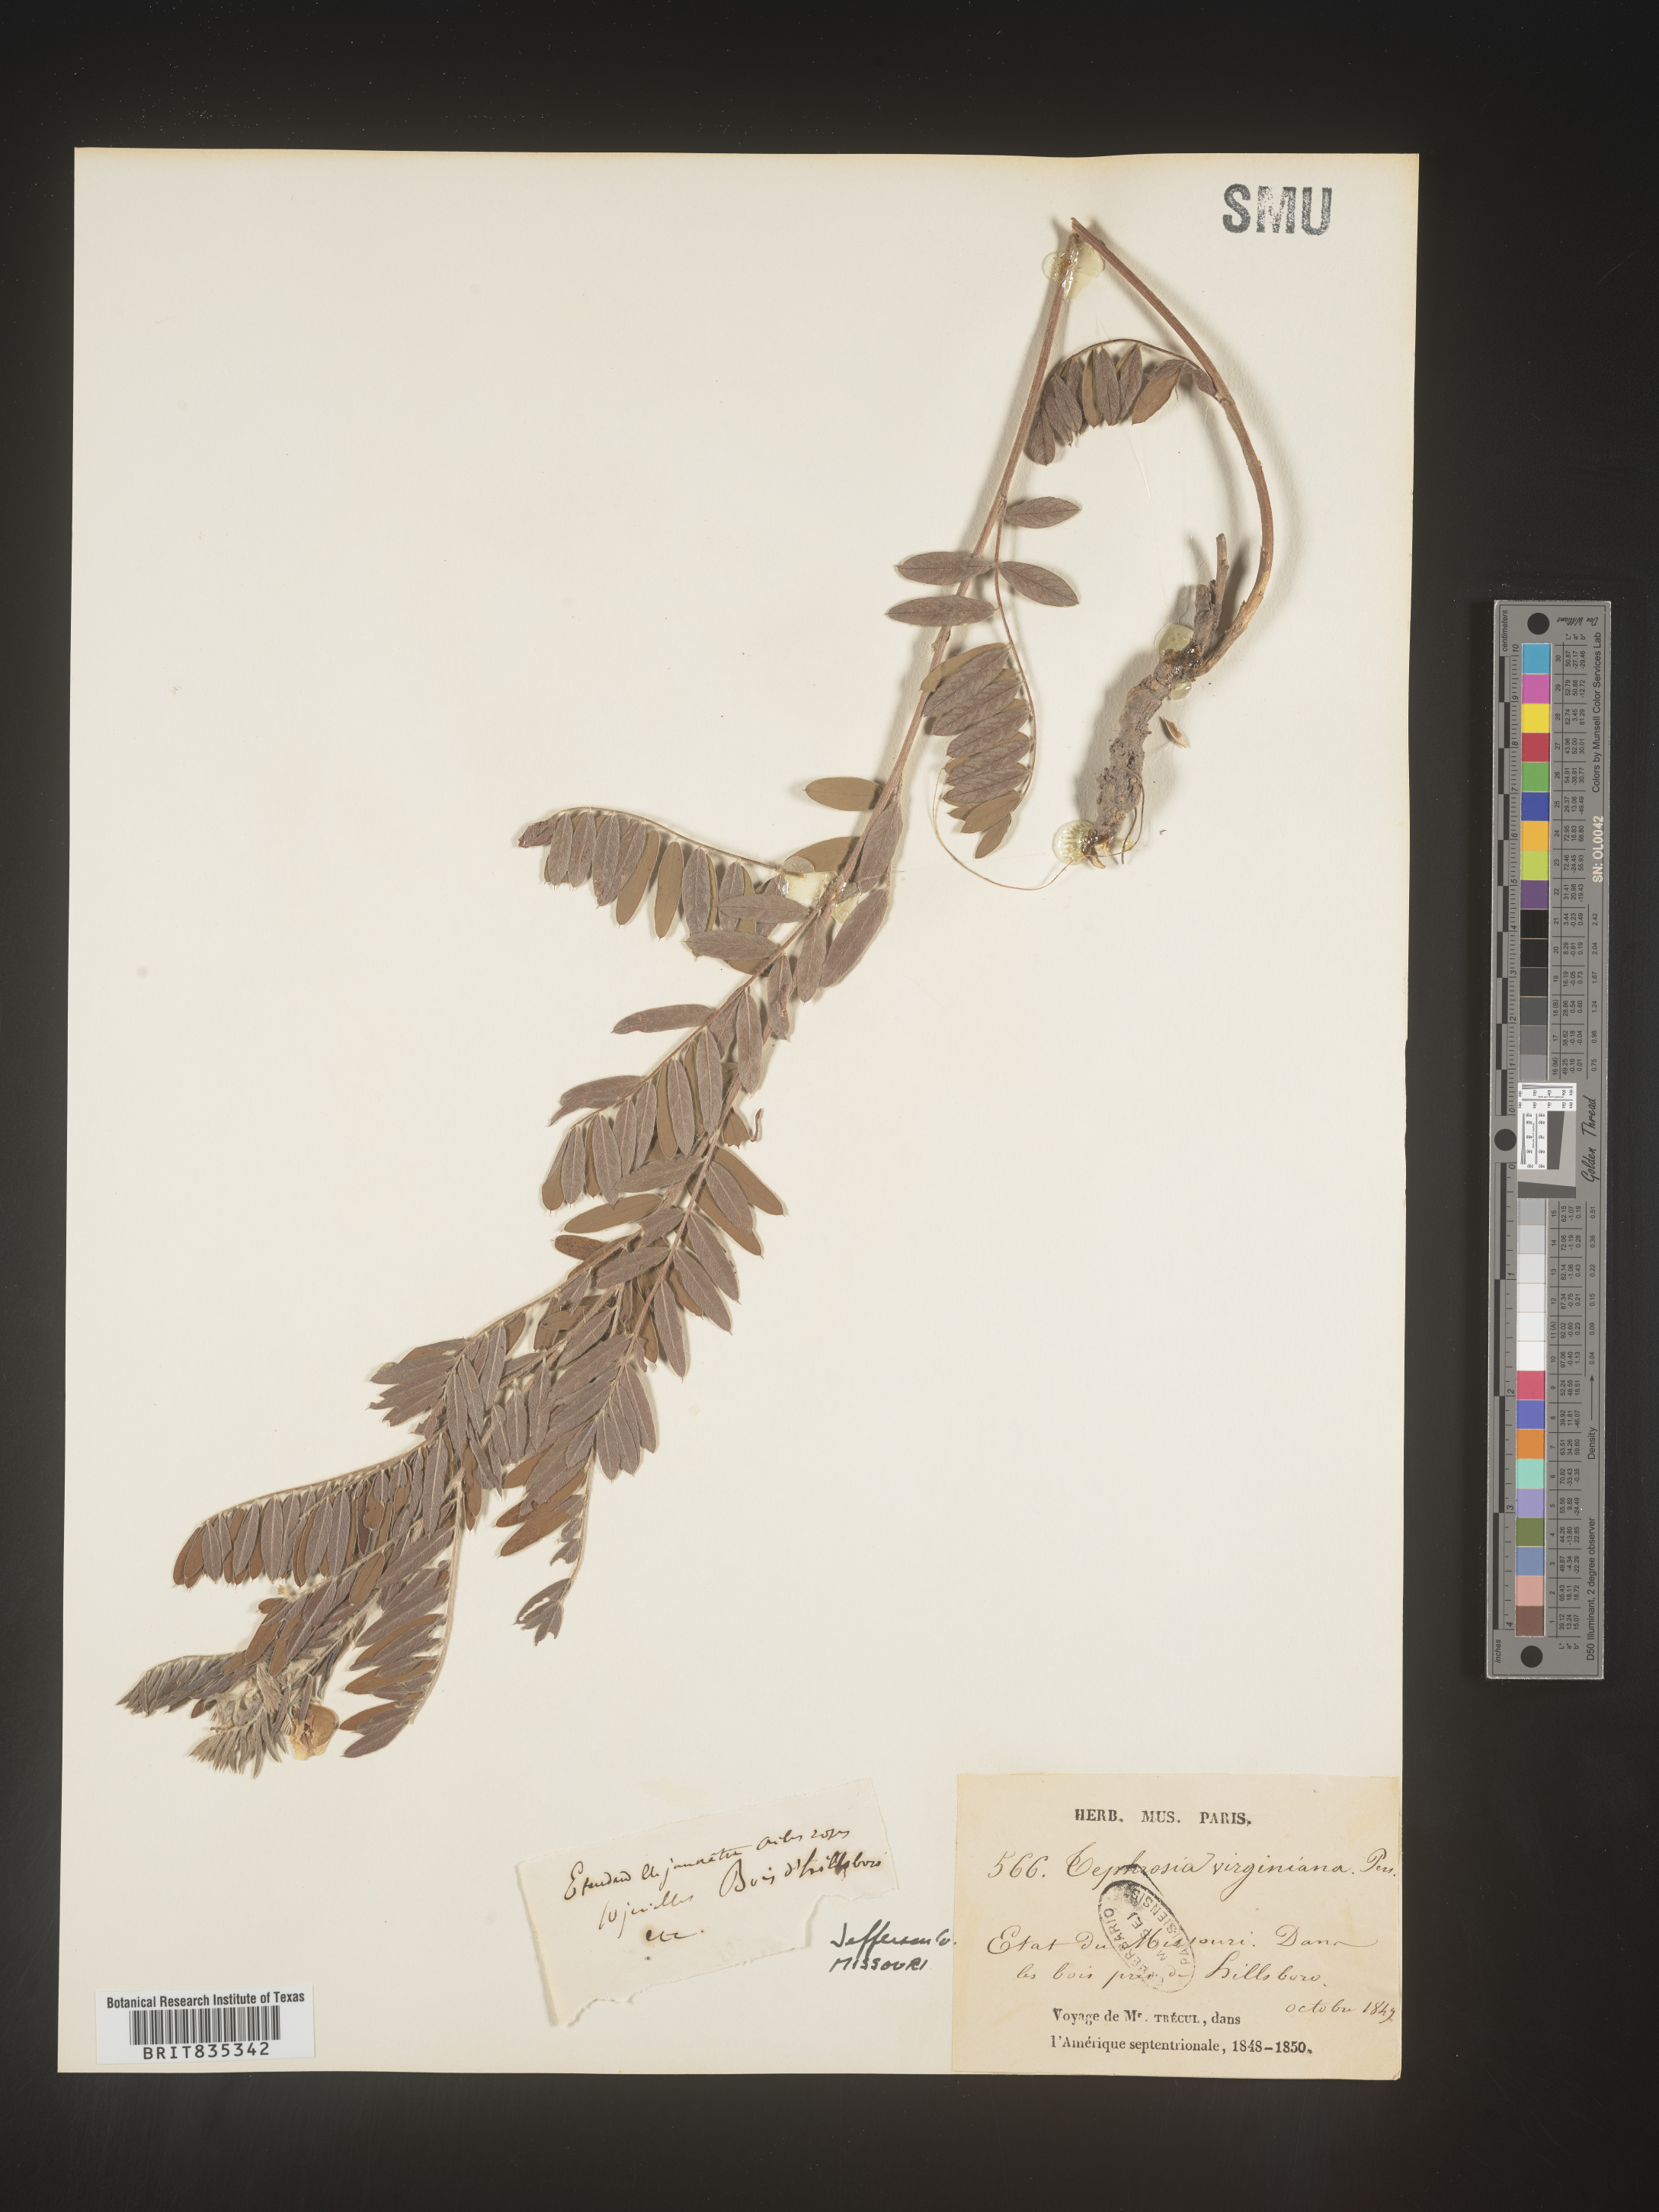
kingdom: Plantae
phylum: Tracheophyta
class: Magnoliopsida
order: Fabales
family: Fabaceae
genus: Tephrosia
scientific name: Tephrosia virginiana
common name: Rabbit-pea
